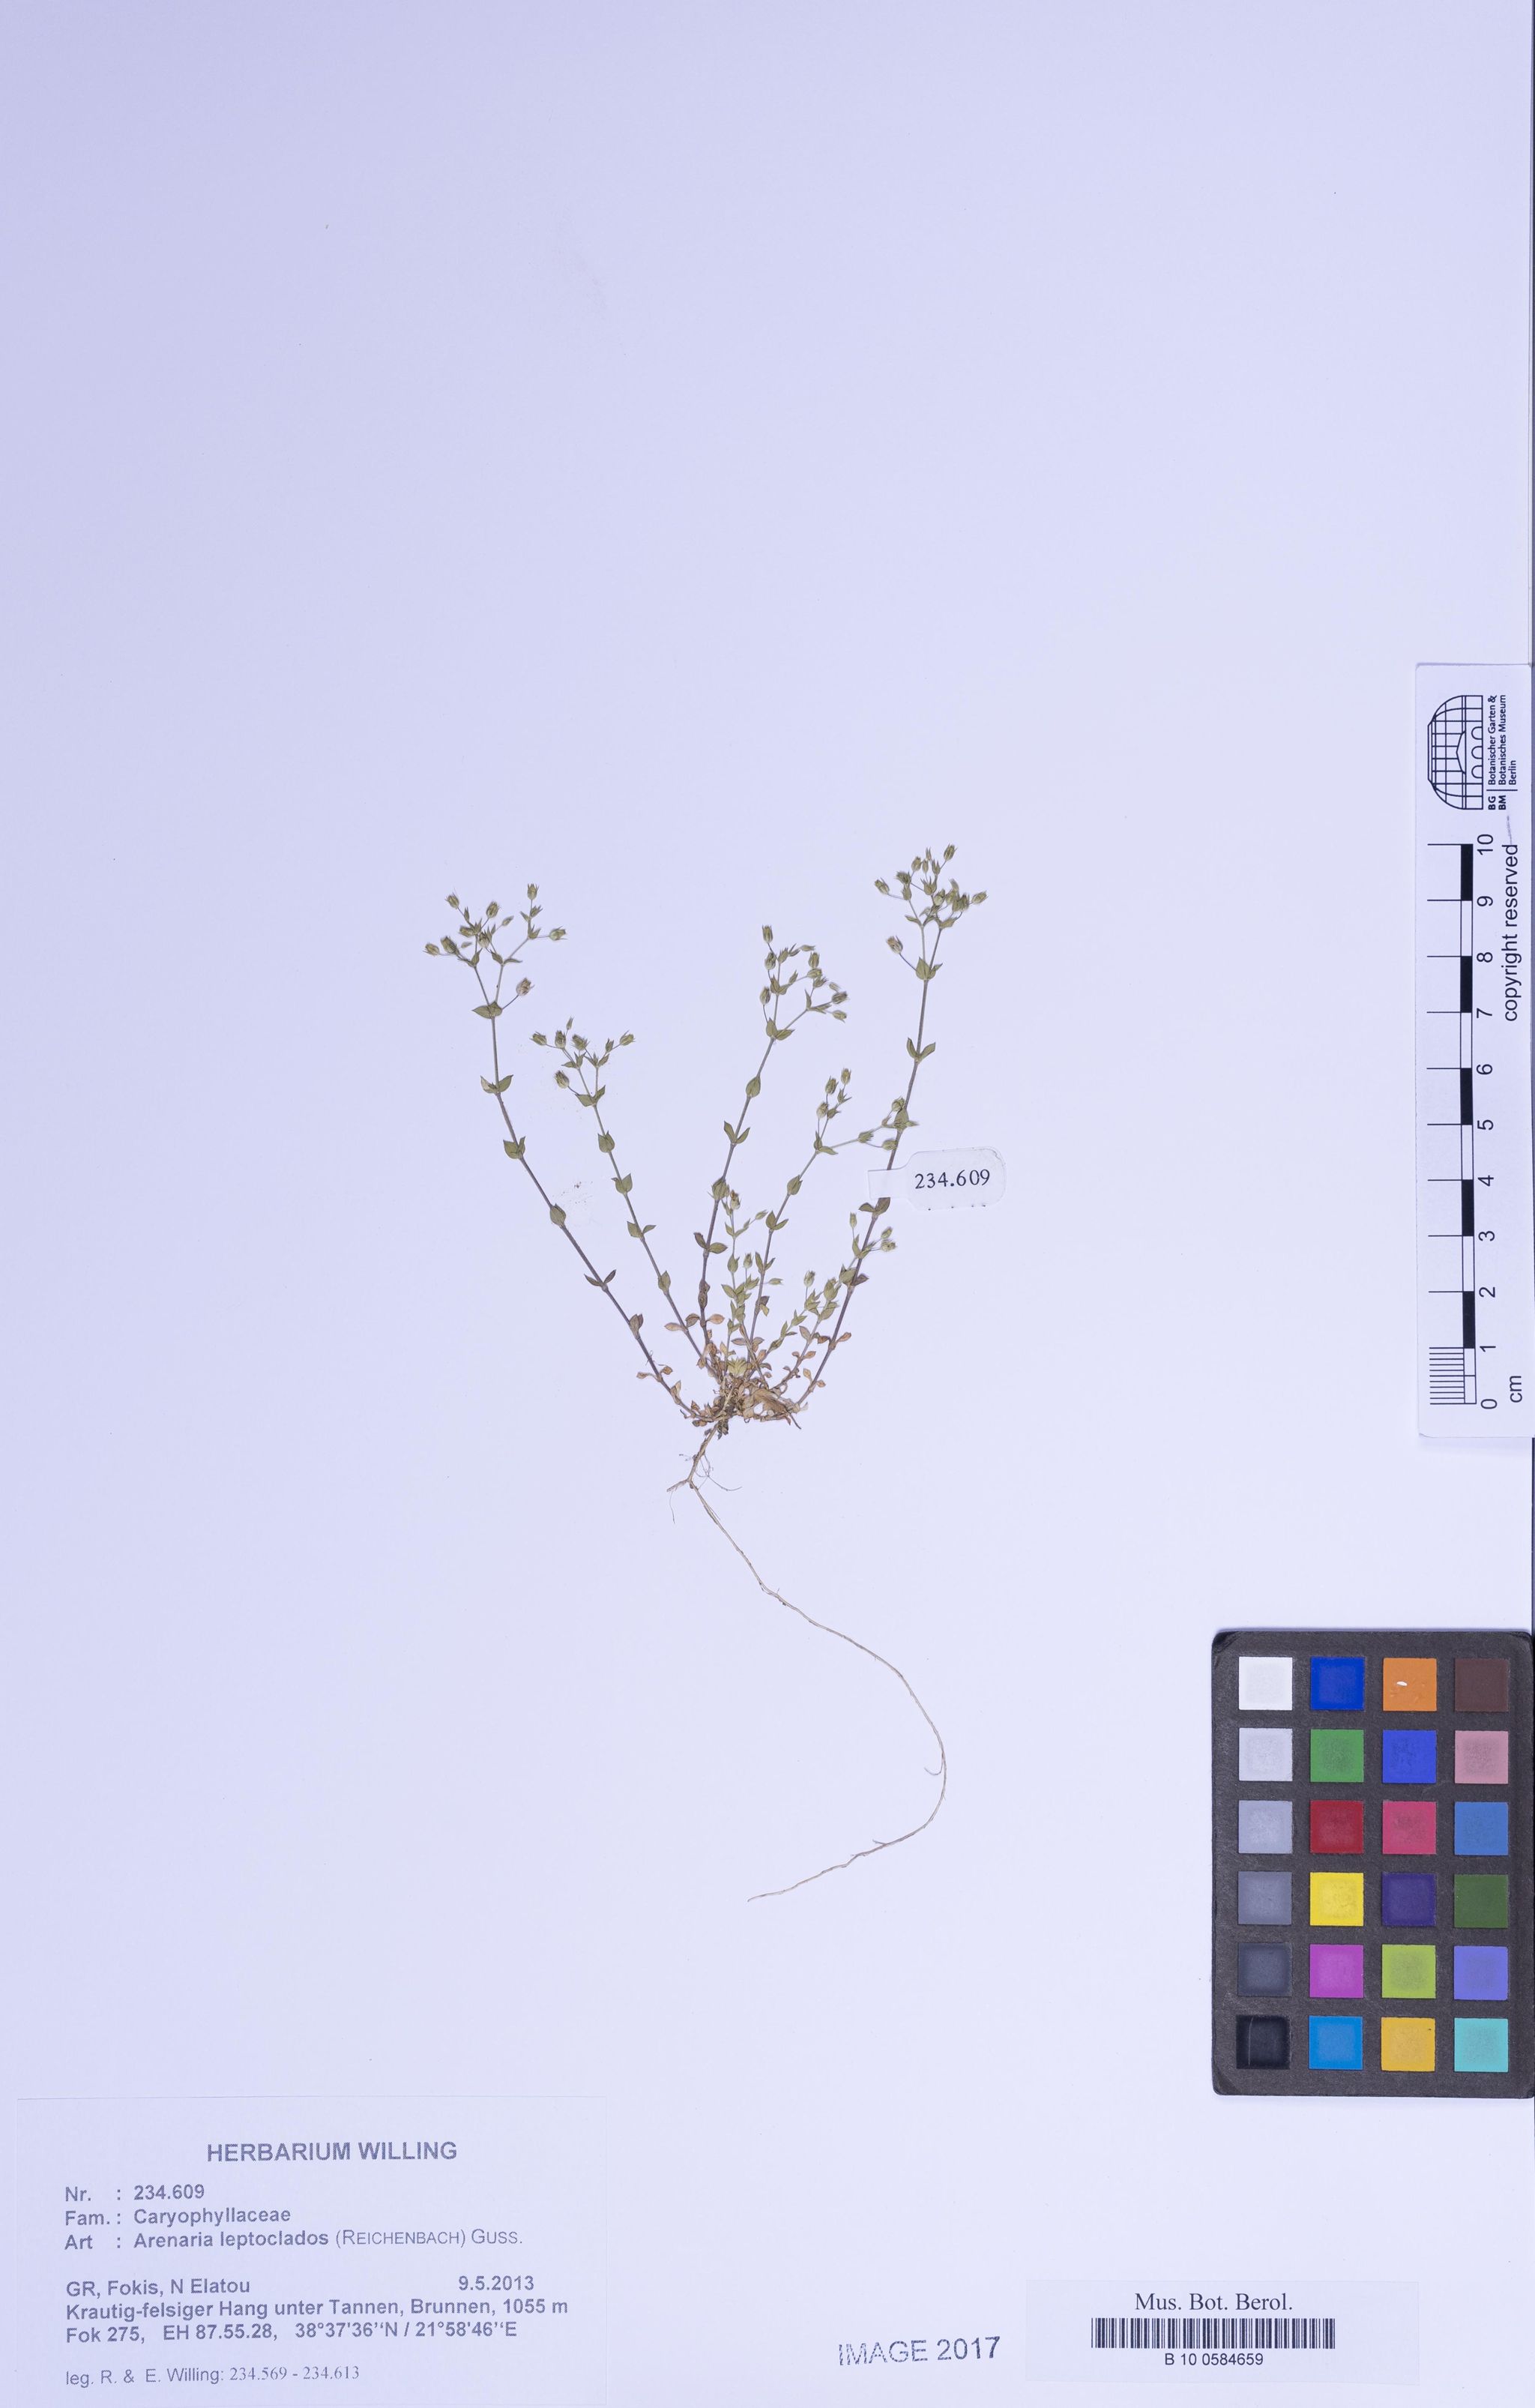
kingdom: Plantae
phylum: Tracheophyta
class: Magnoliopsida
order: Caryophyllales
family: Caryophyllaceae
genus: Arenaria
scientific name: Arenaria leptoclados
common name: Thyme-leaved sandwort
